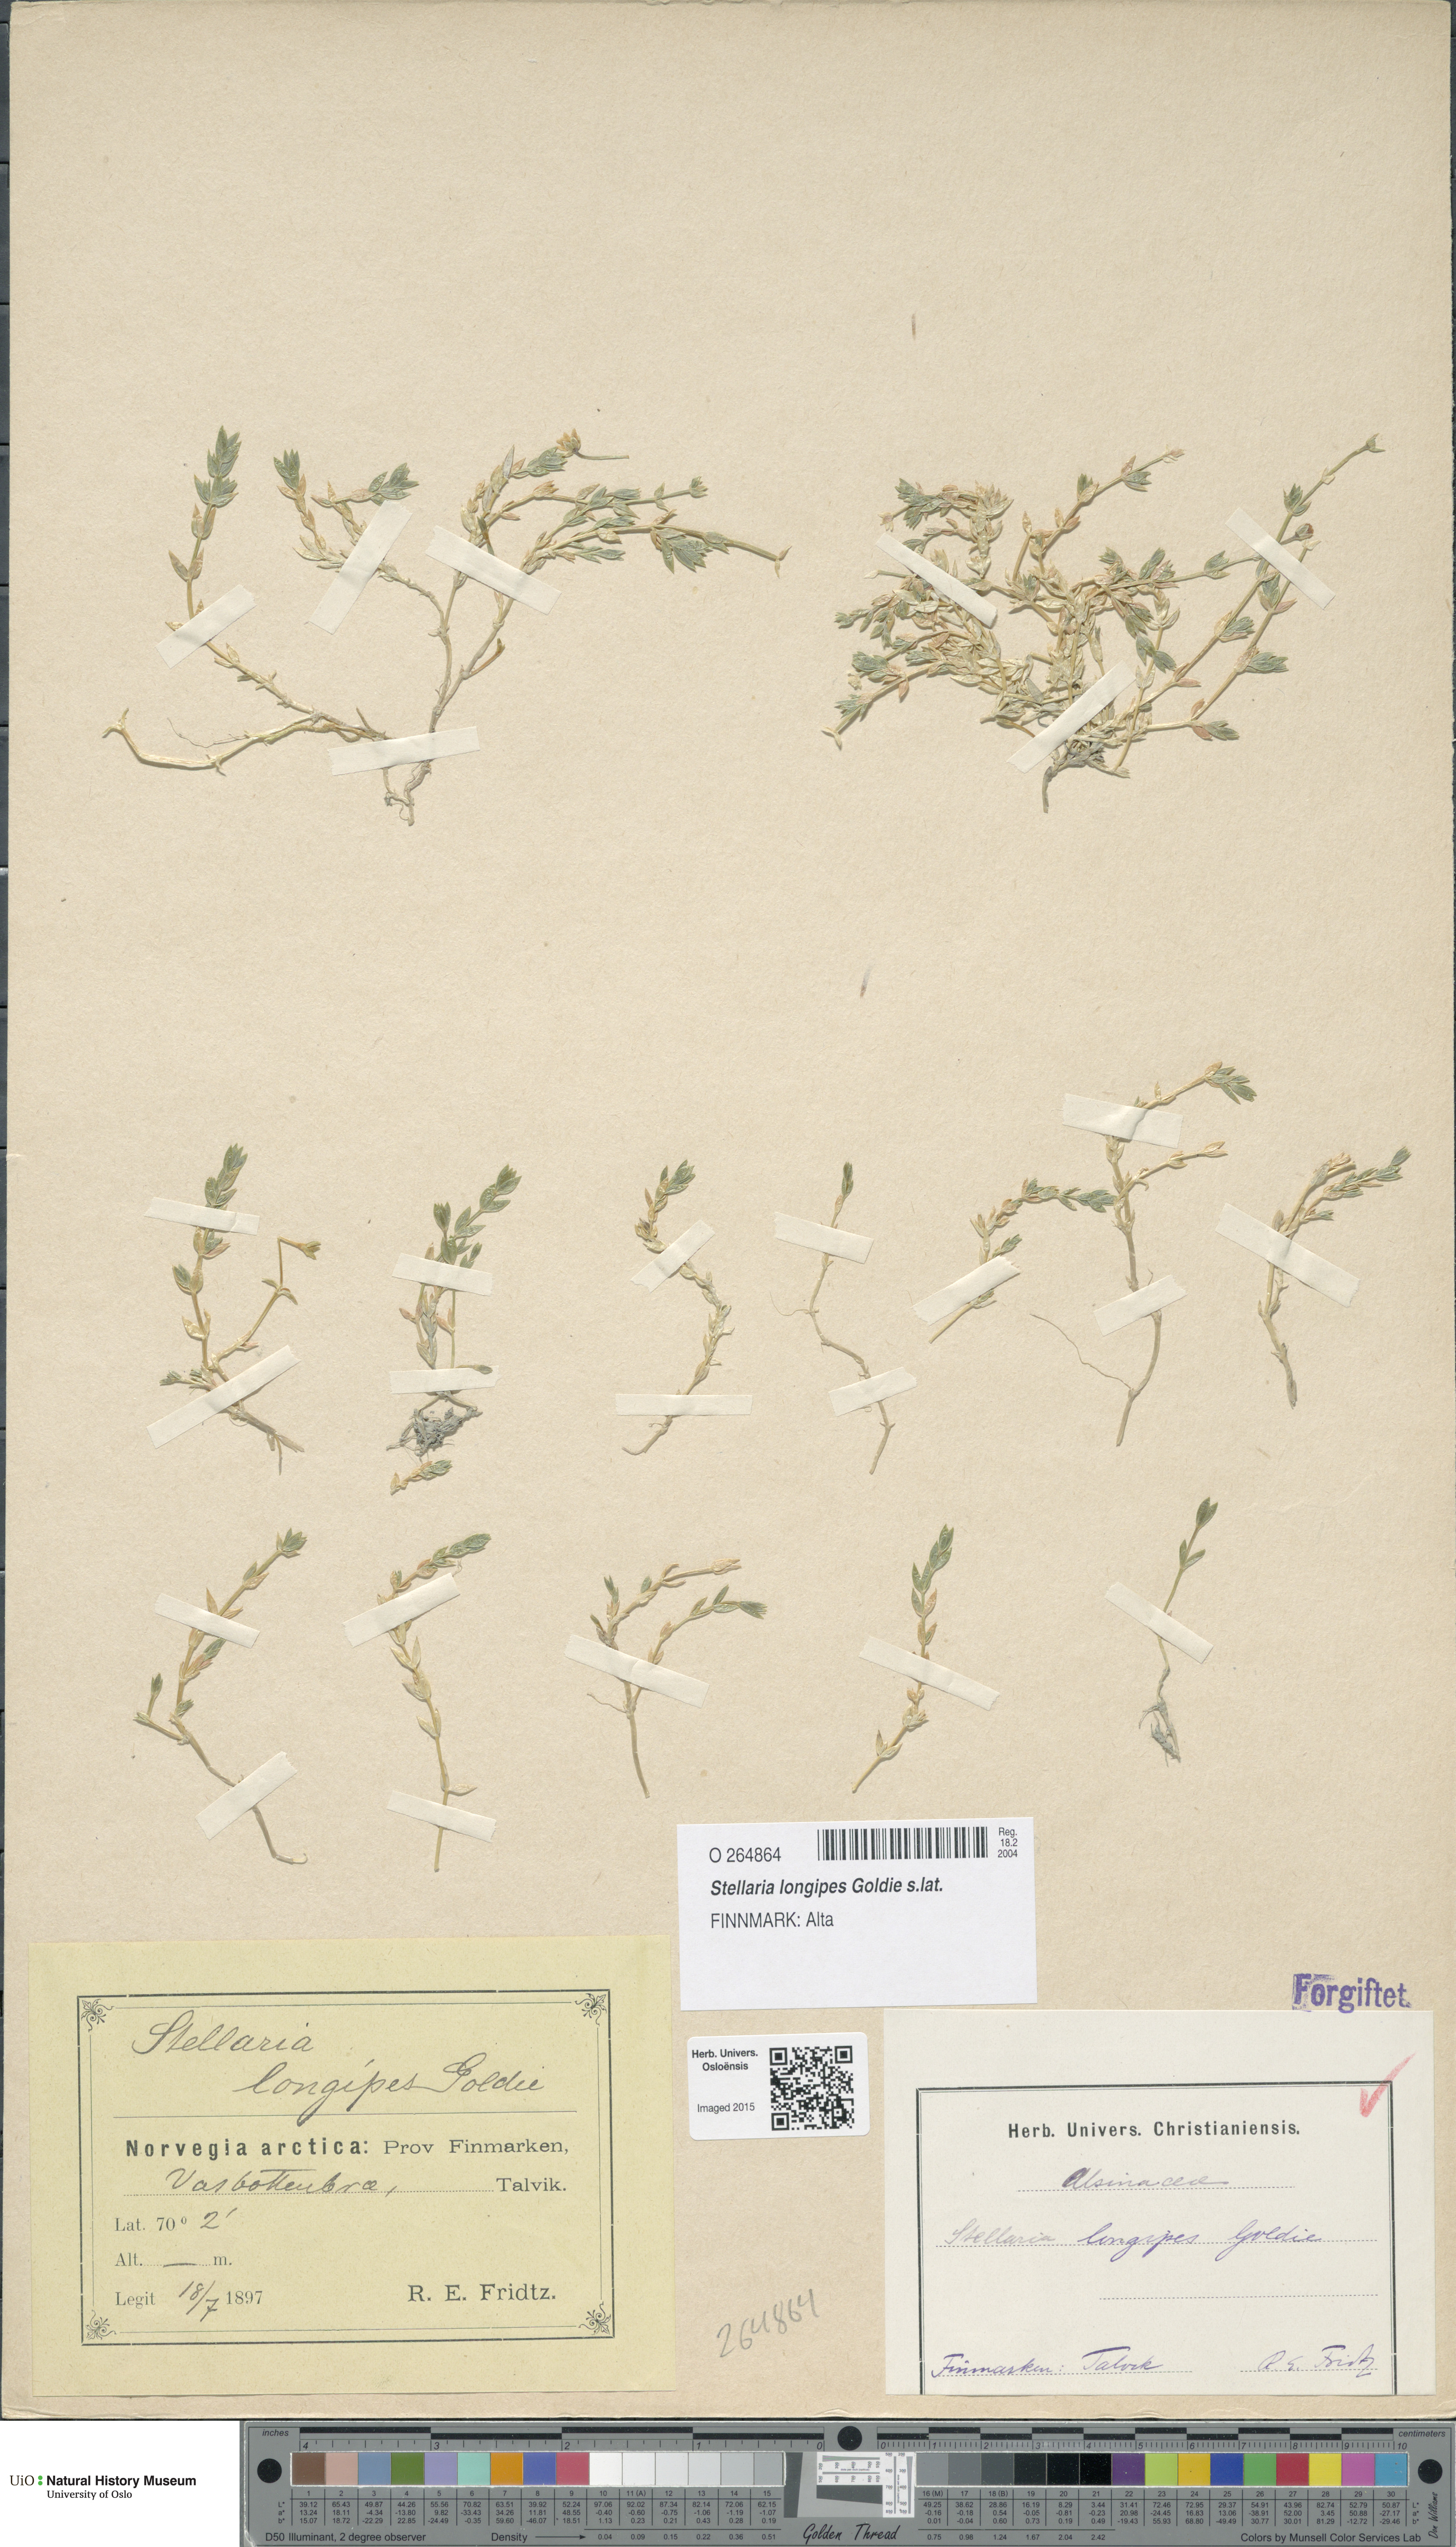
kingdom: Plantae
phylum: Tracheophyta
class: Magnoliopsida
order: Caryophyllales
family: Caryophyllaceae
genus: Stellaria
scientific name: Stellaria longipes
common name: Goldie's starwort
